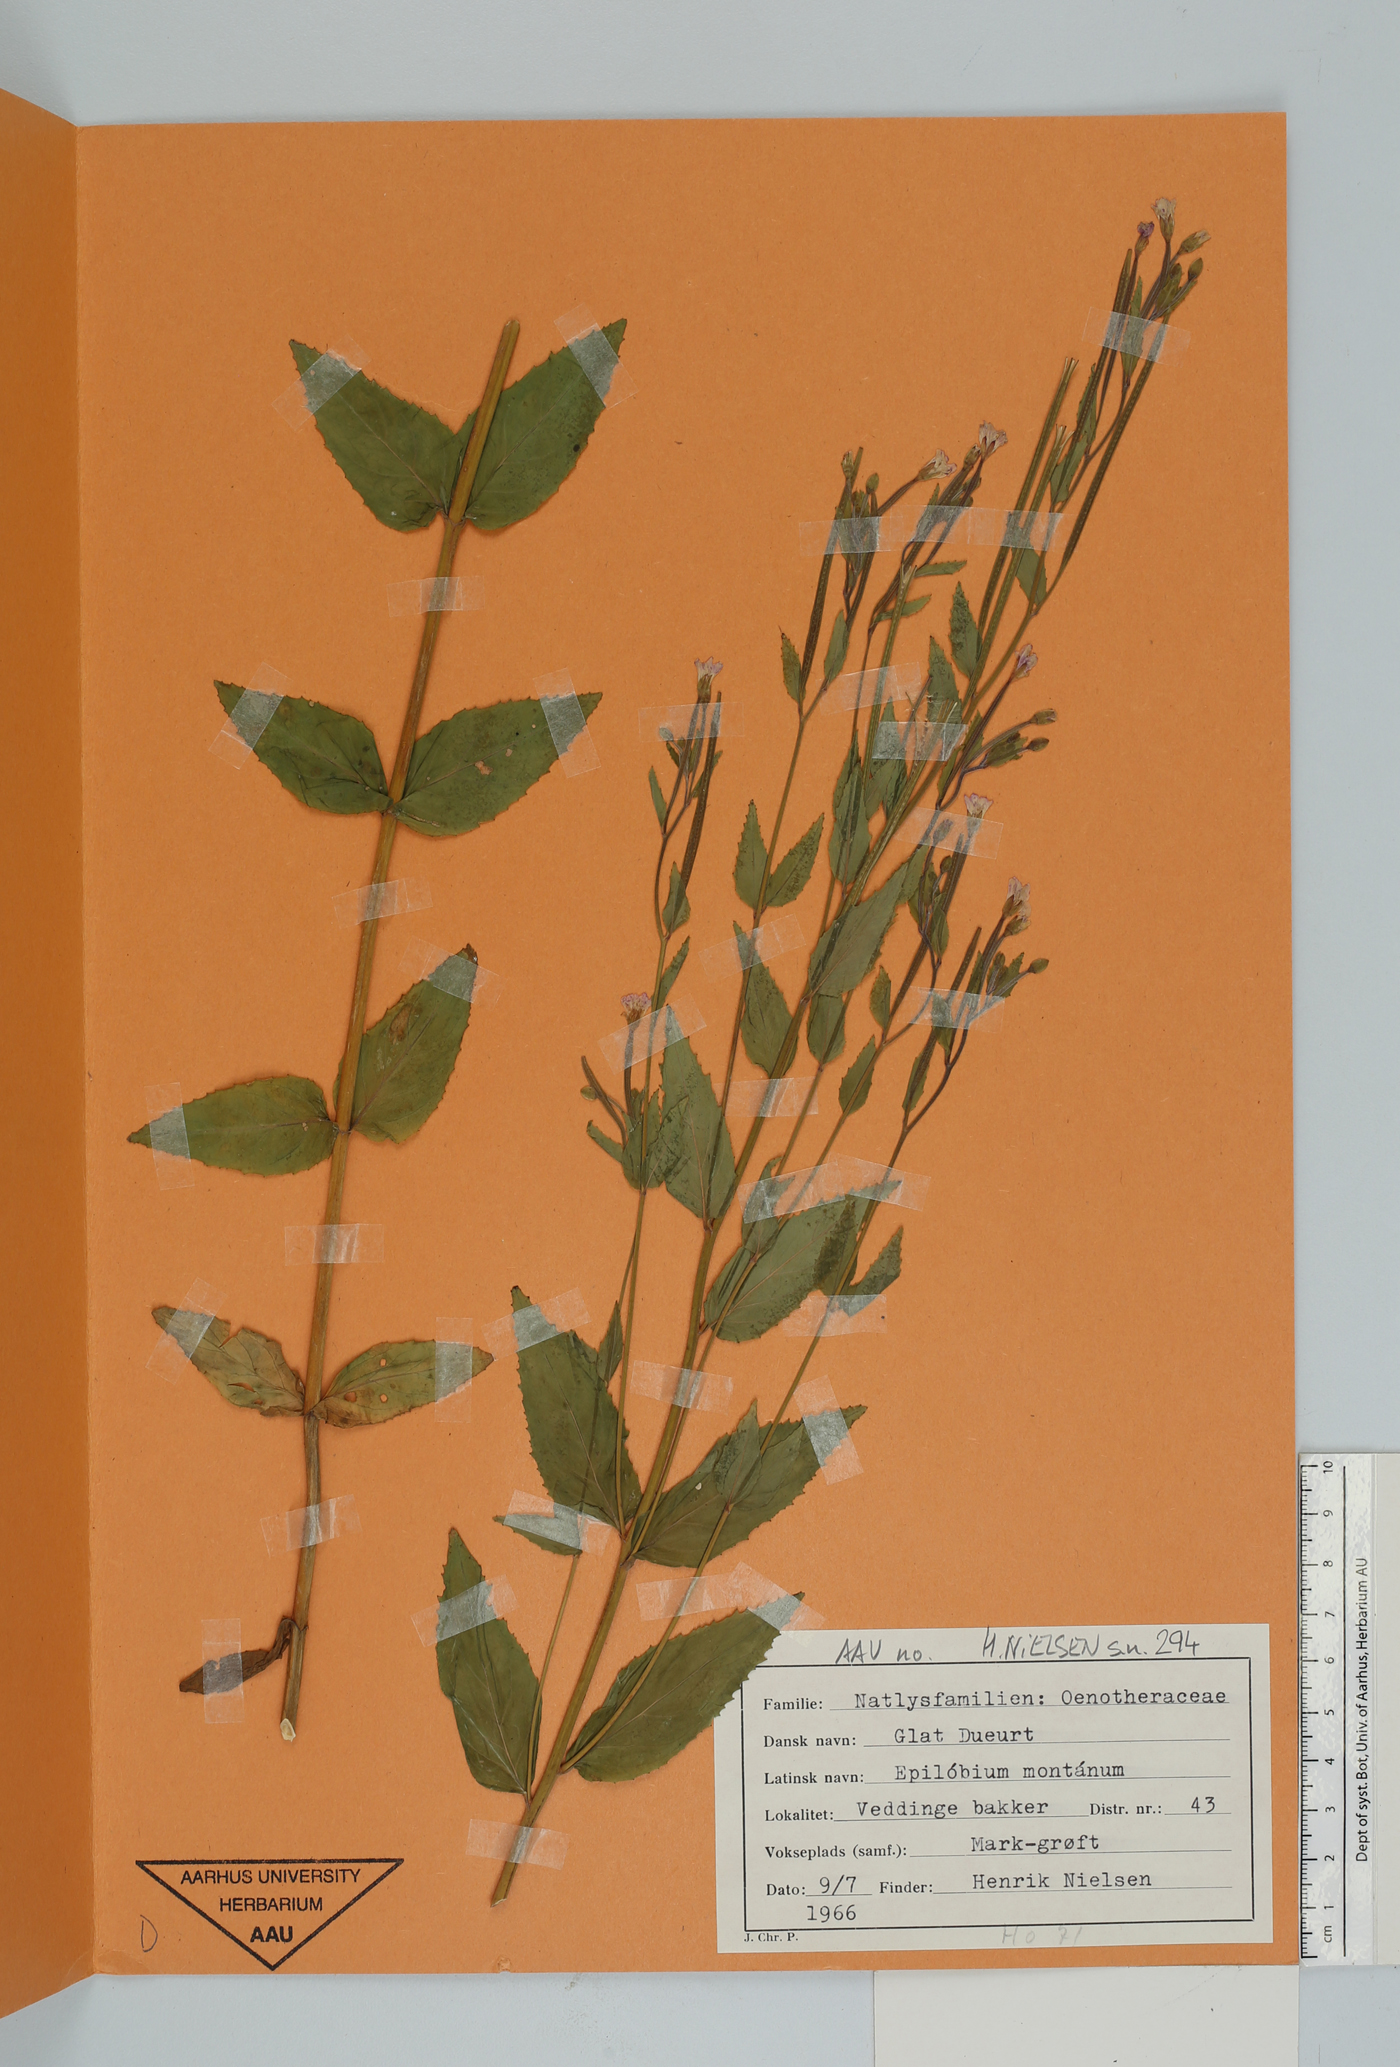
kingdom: Plantae
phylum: Tracheophyta
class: Magnoliopsida
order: Myrtales
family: Onagraceae
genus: Epilobium
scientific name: Epilobium montanum
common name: Broad-leaved willowherb
